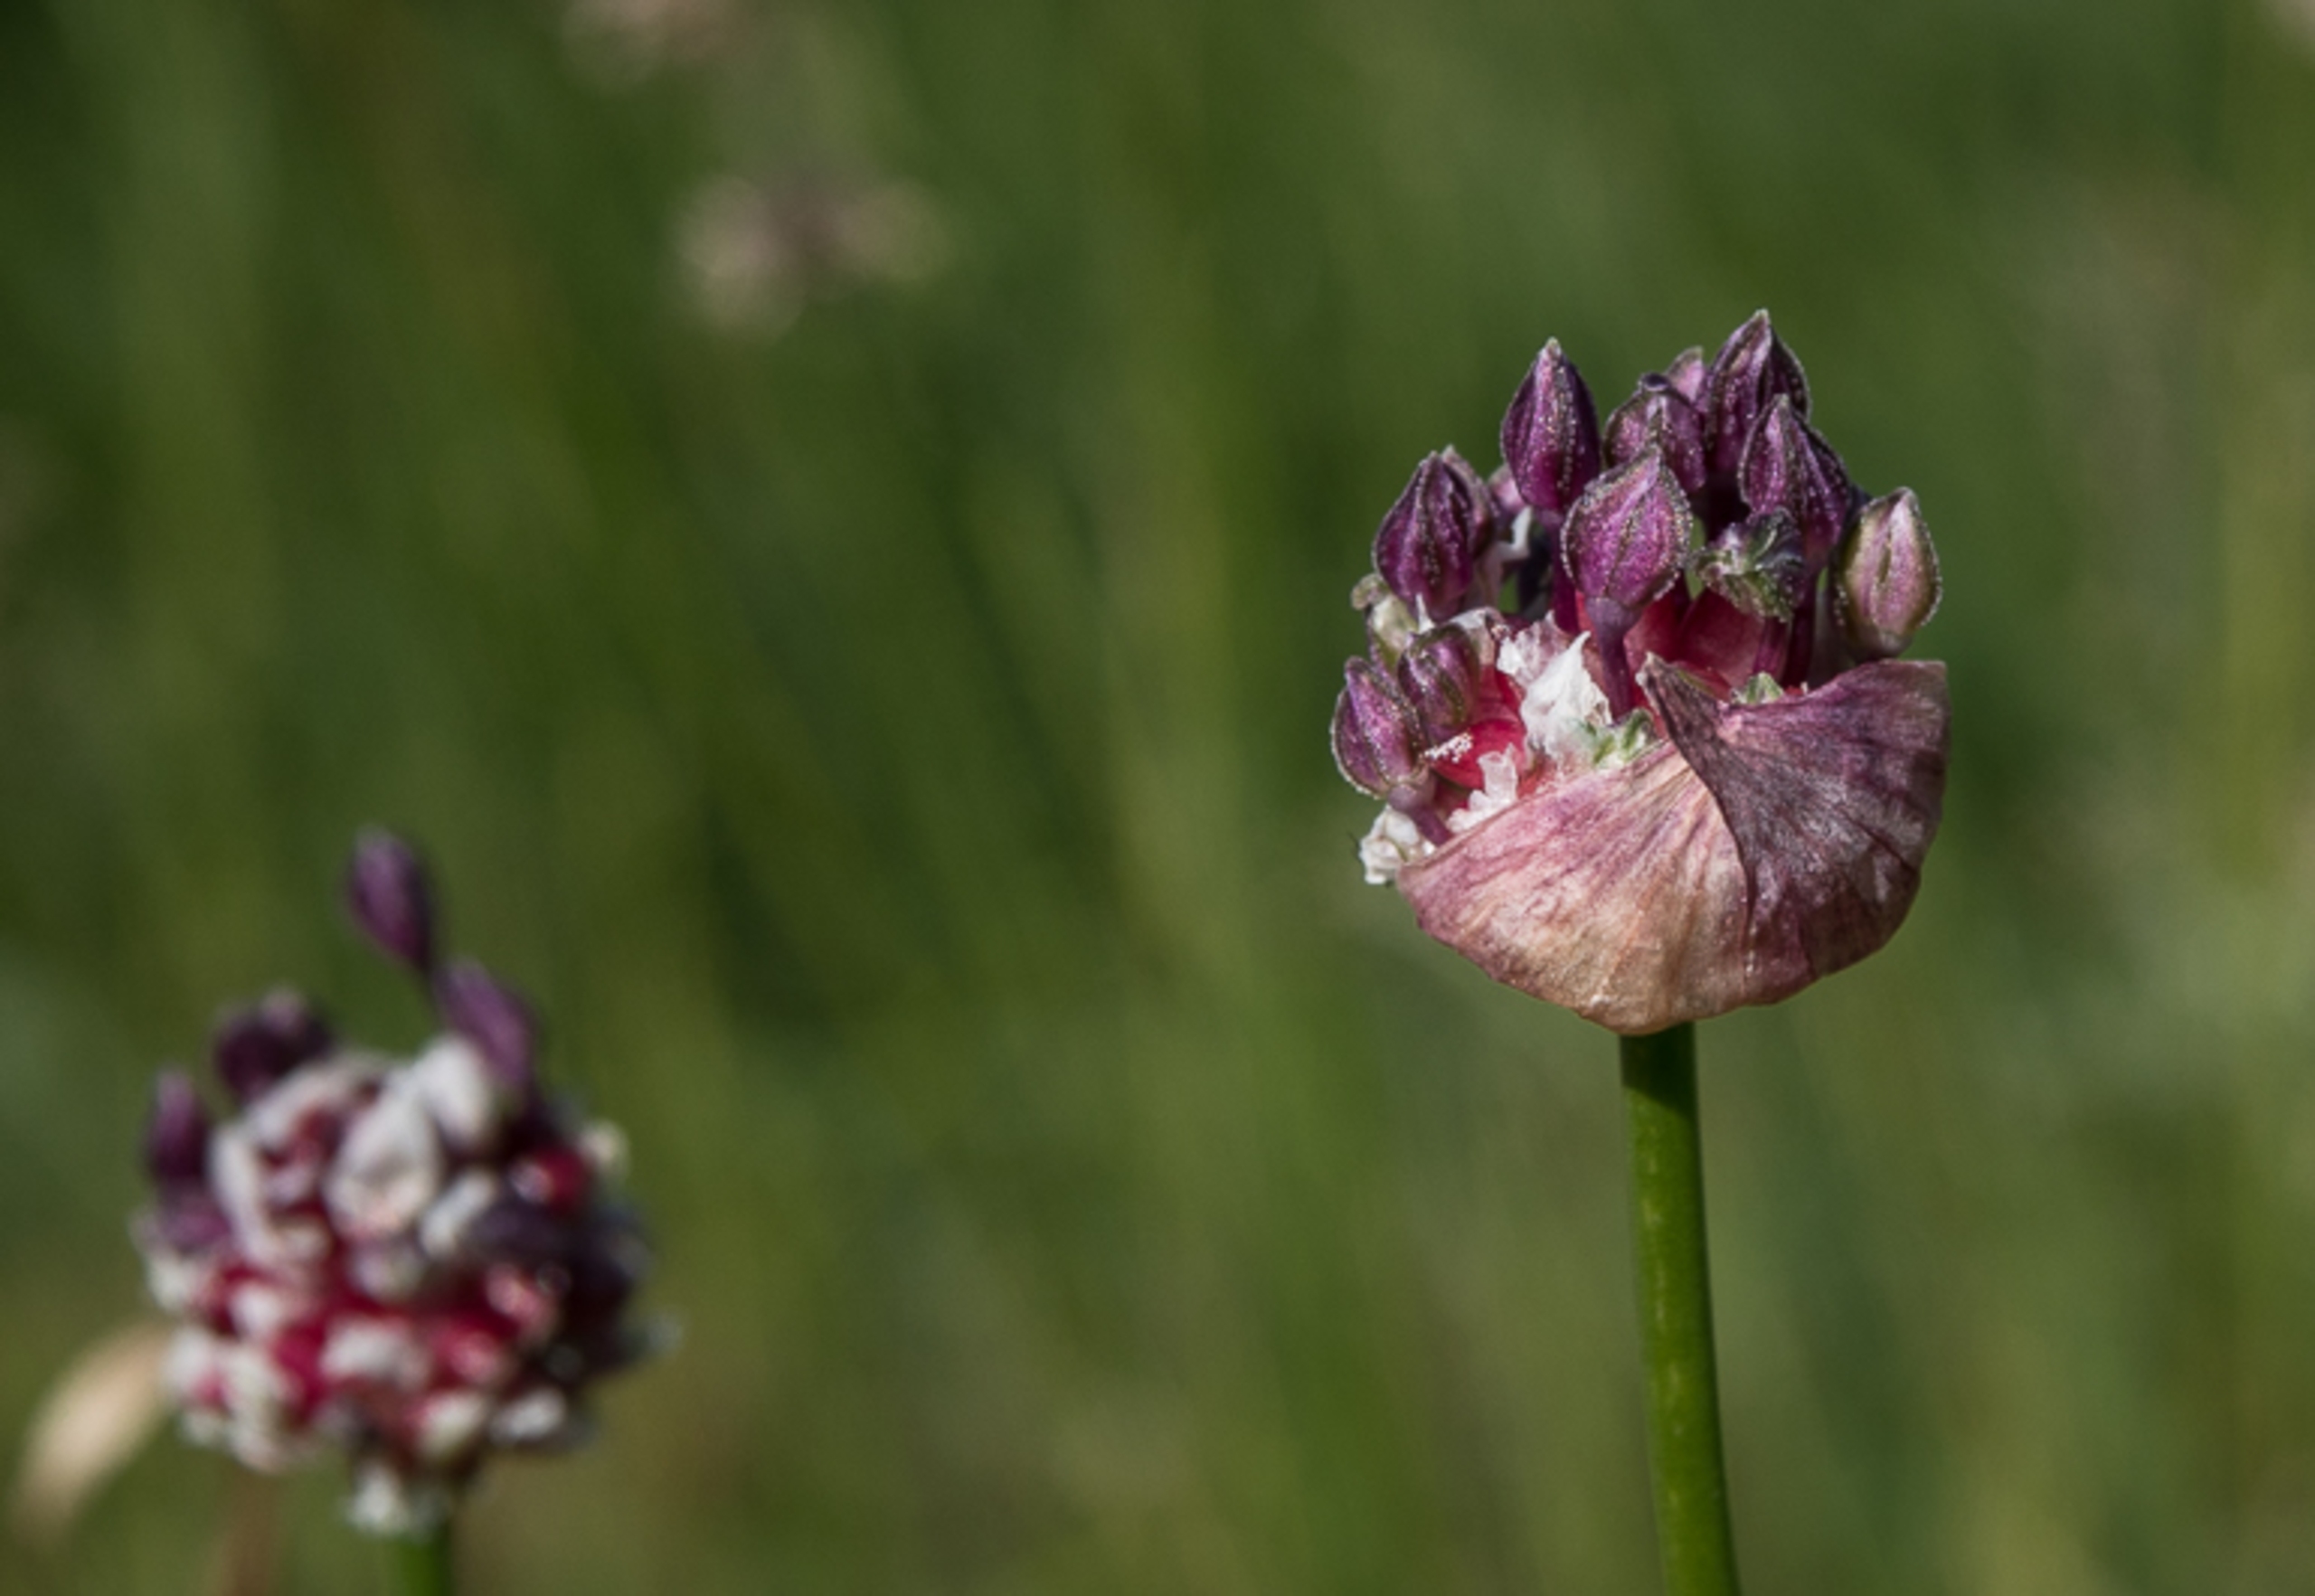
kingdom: Plantae
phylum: Tracheophyta
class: Liliopsida
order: Asparagales
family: Amaryllidaceae
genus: Allium
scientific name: Allium scorodoprasum
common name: Skov-løg
